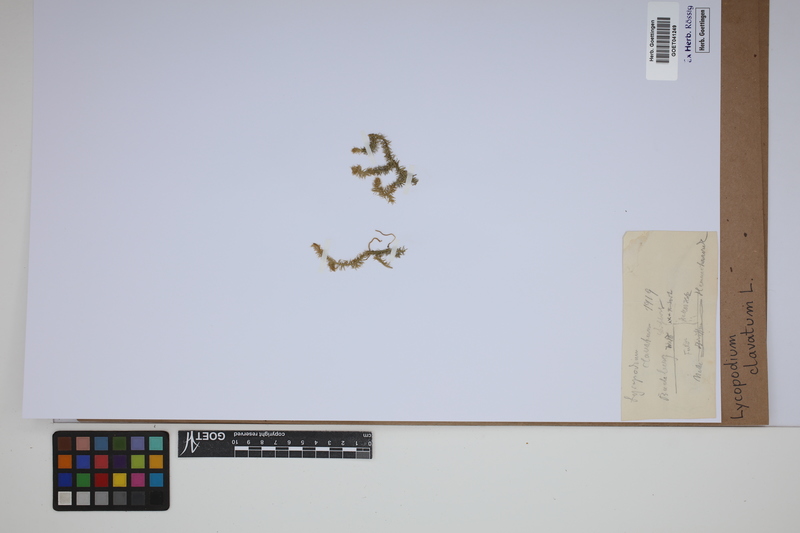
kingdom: Plantae
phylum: Tracheophyta
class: Lycopodiopsida
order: Lycopodiales
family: Lycopodiaceae
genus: Lycopodium
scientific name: Lycopodium clavatum
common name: Stag's-horn clubmoss
